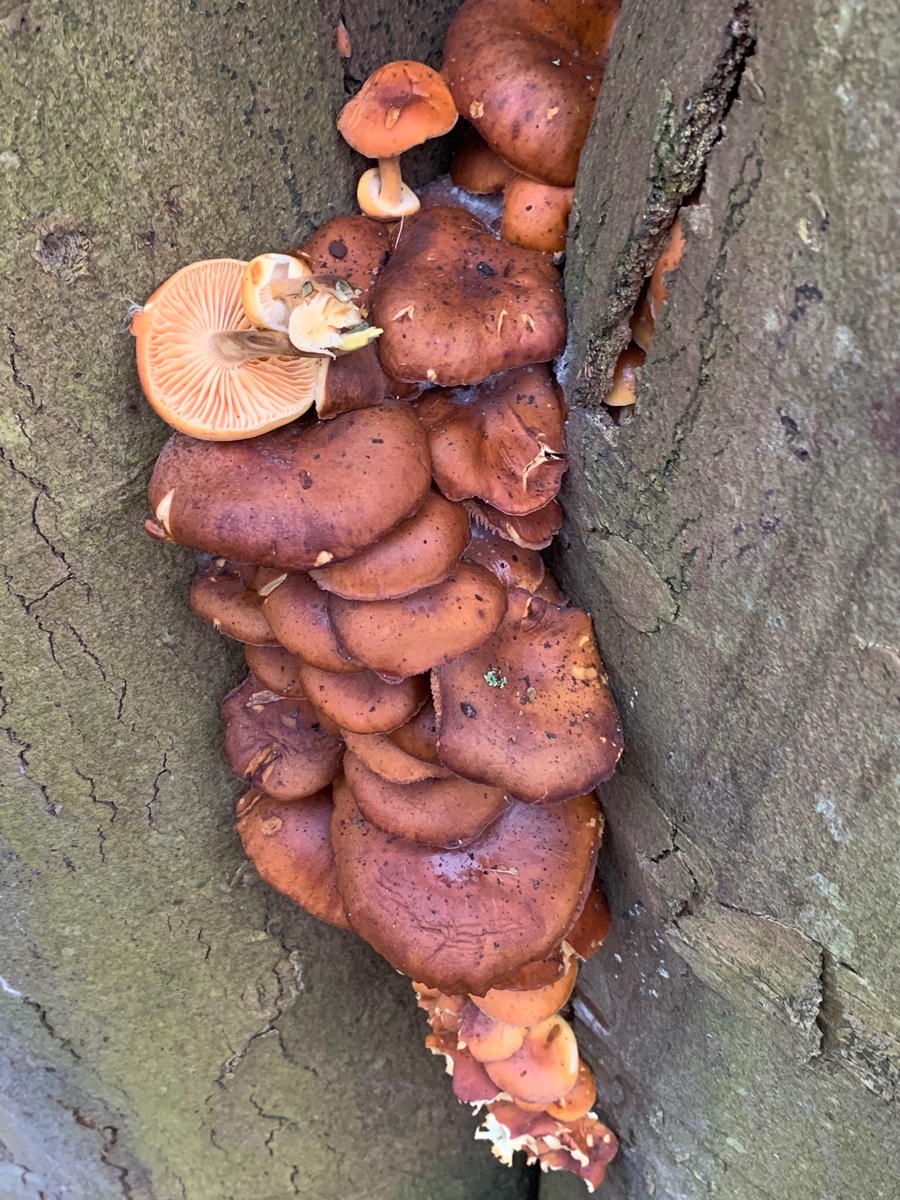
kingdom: Fungi
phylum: Basidiomycota
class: Agaricomycetes
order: Agaricales
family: Physalacriaceae
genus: Flammulina
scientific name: Flammulina velutipes
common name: gul fløjlsfod
